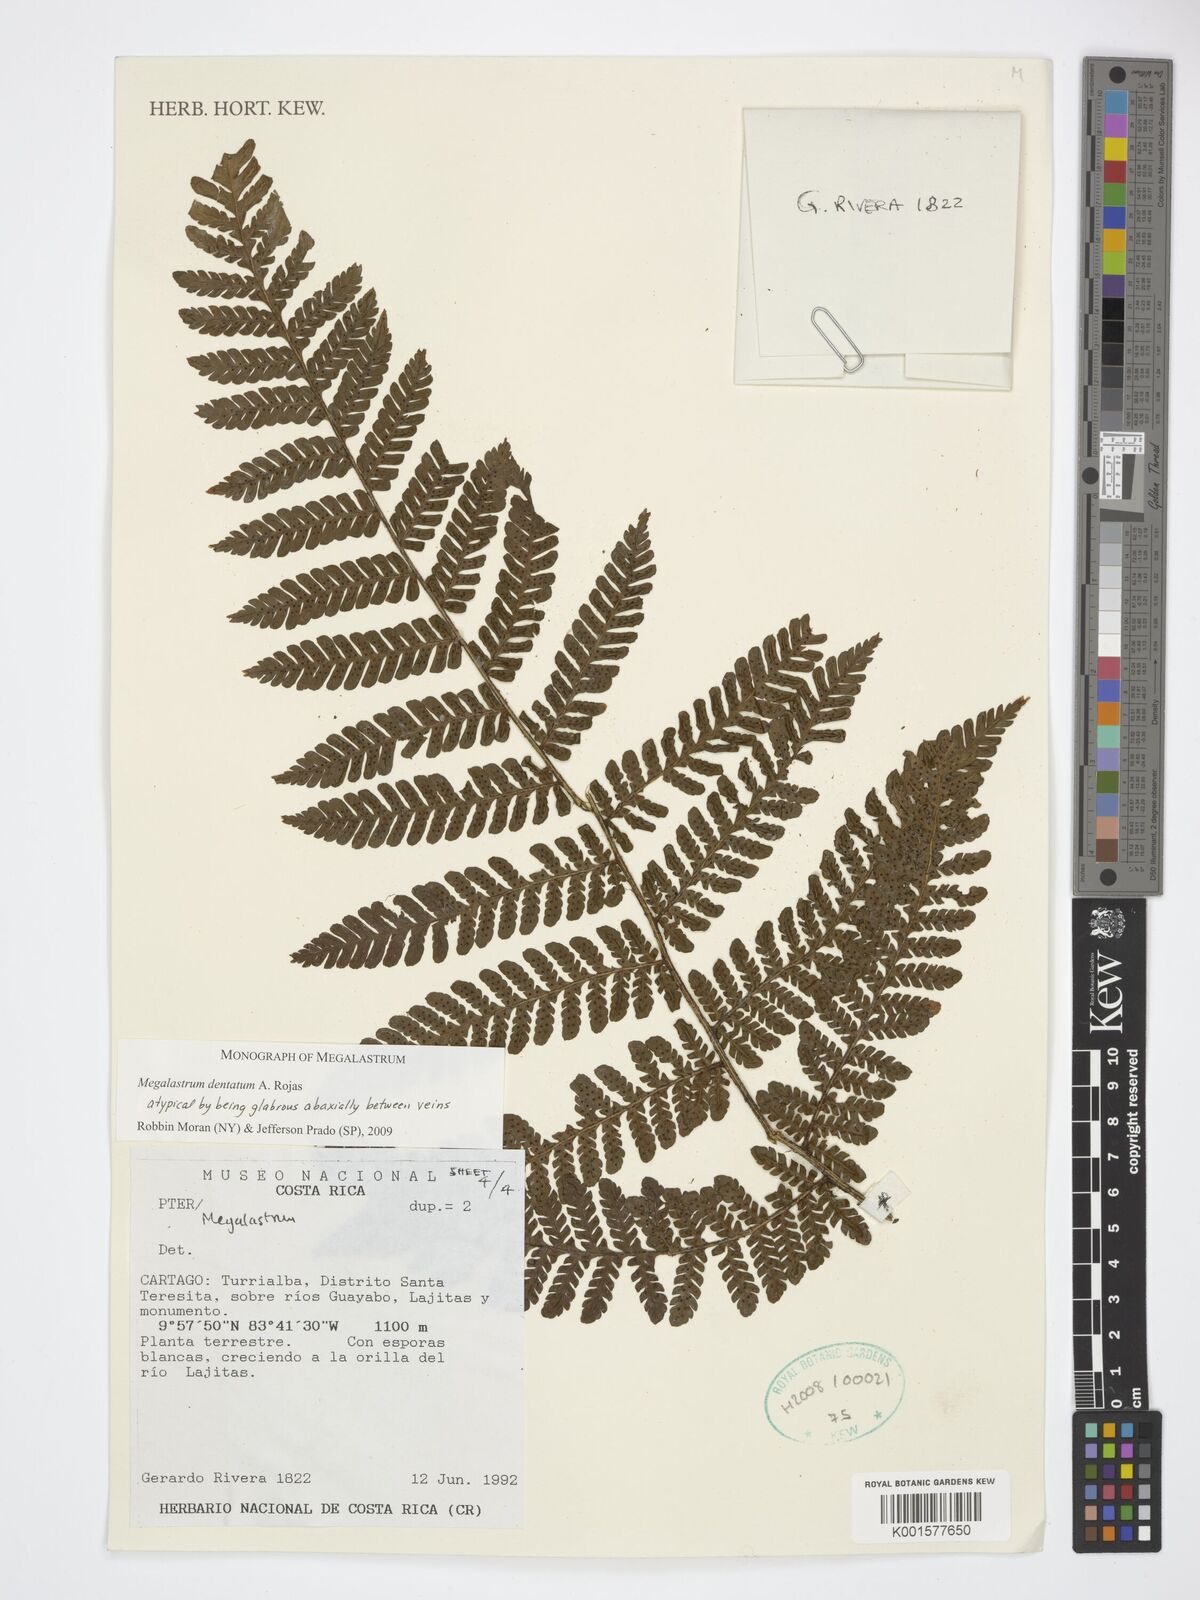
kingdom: Plantae
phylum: Tracheophyta
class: Polypodiopsida
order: Polypodiales
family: Dryopteridaceae
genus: Megalastrum
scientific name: Megalastrum dentatum
